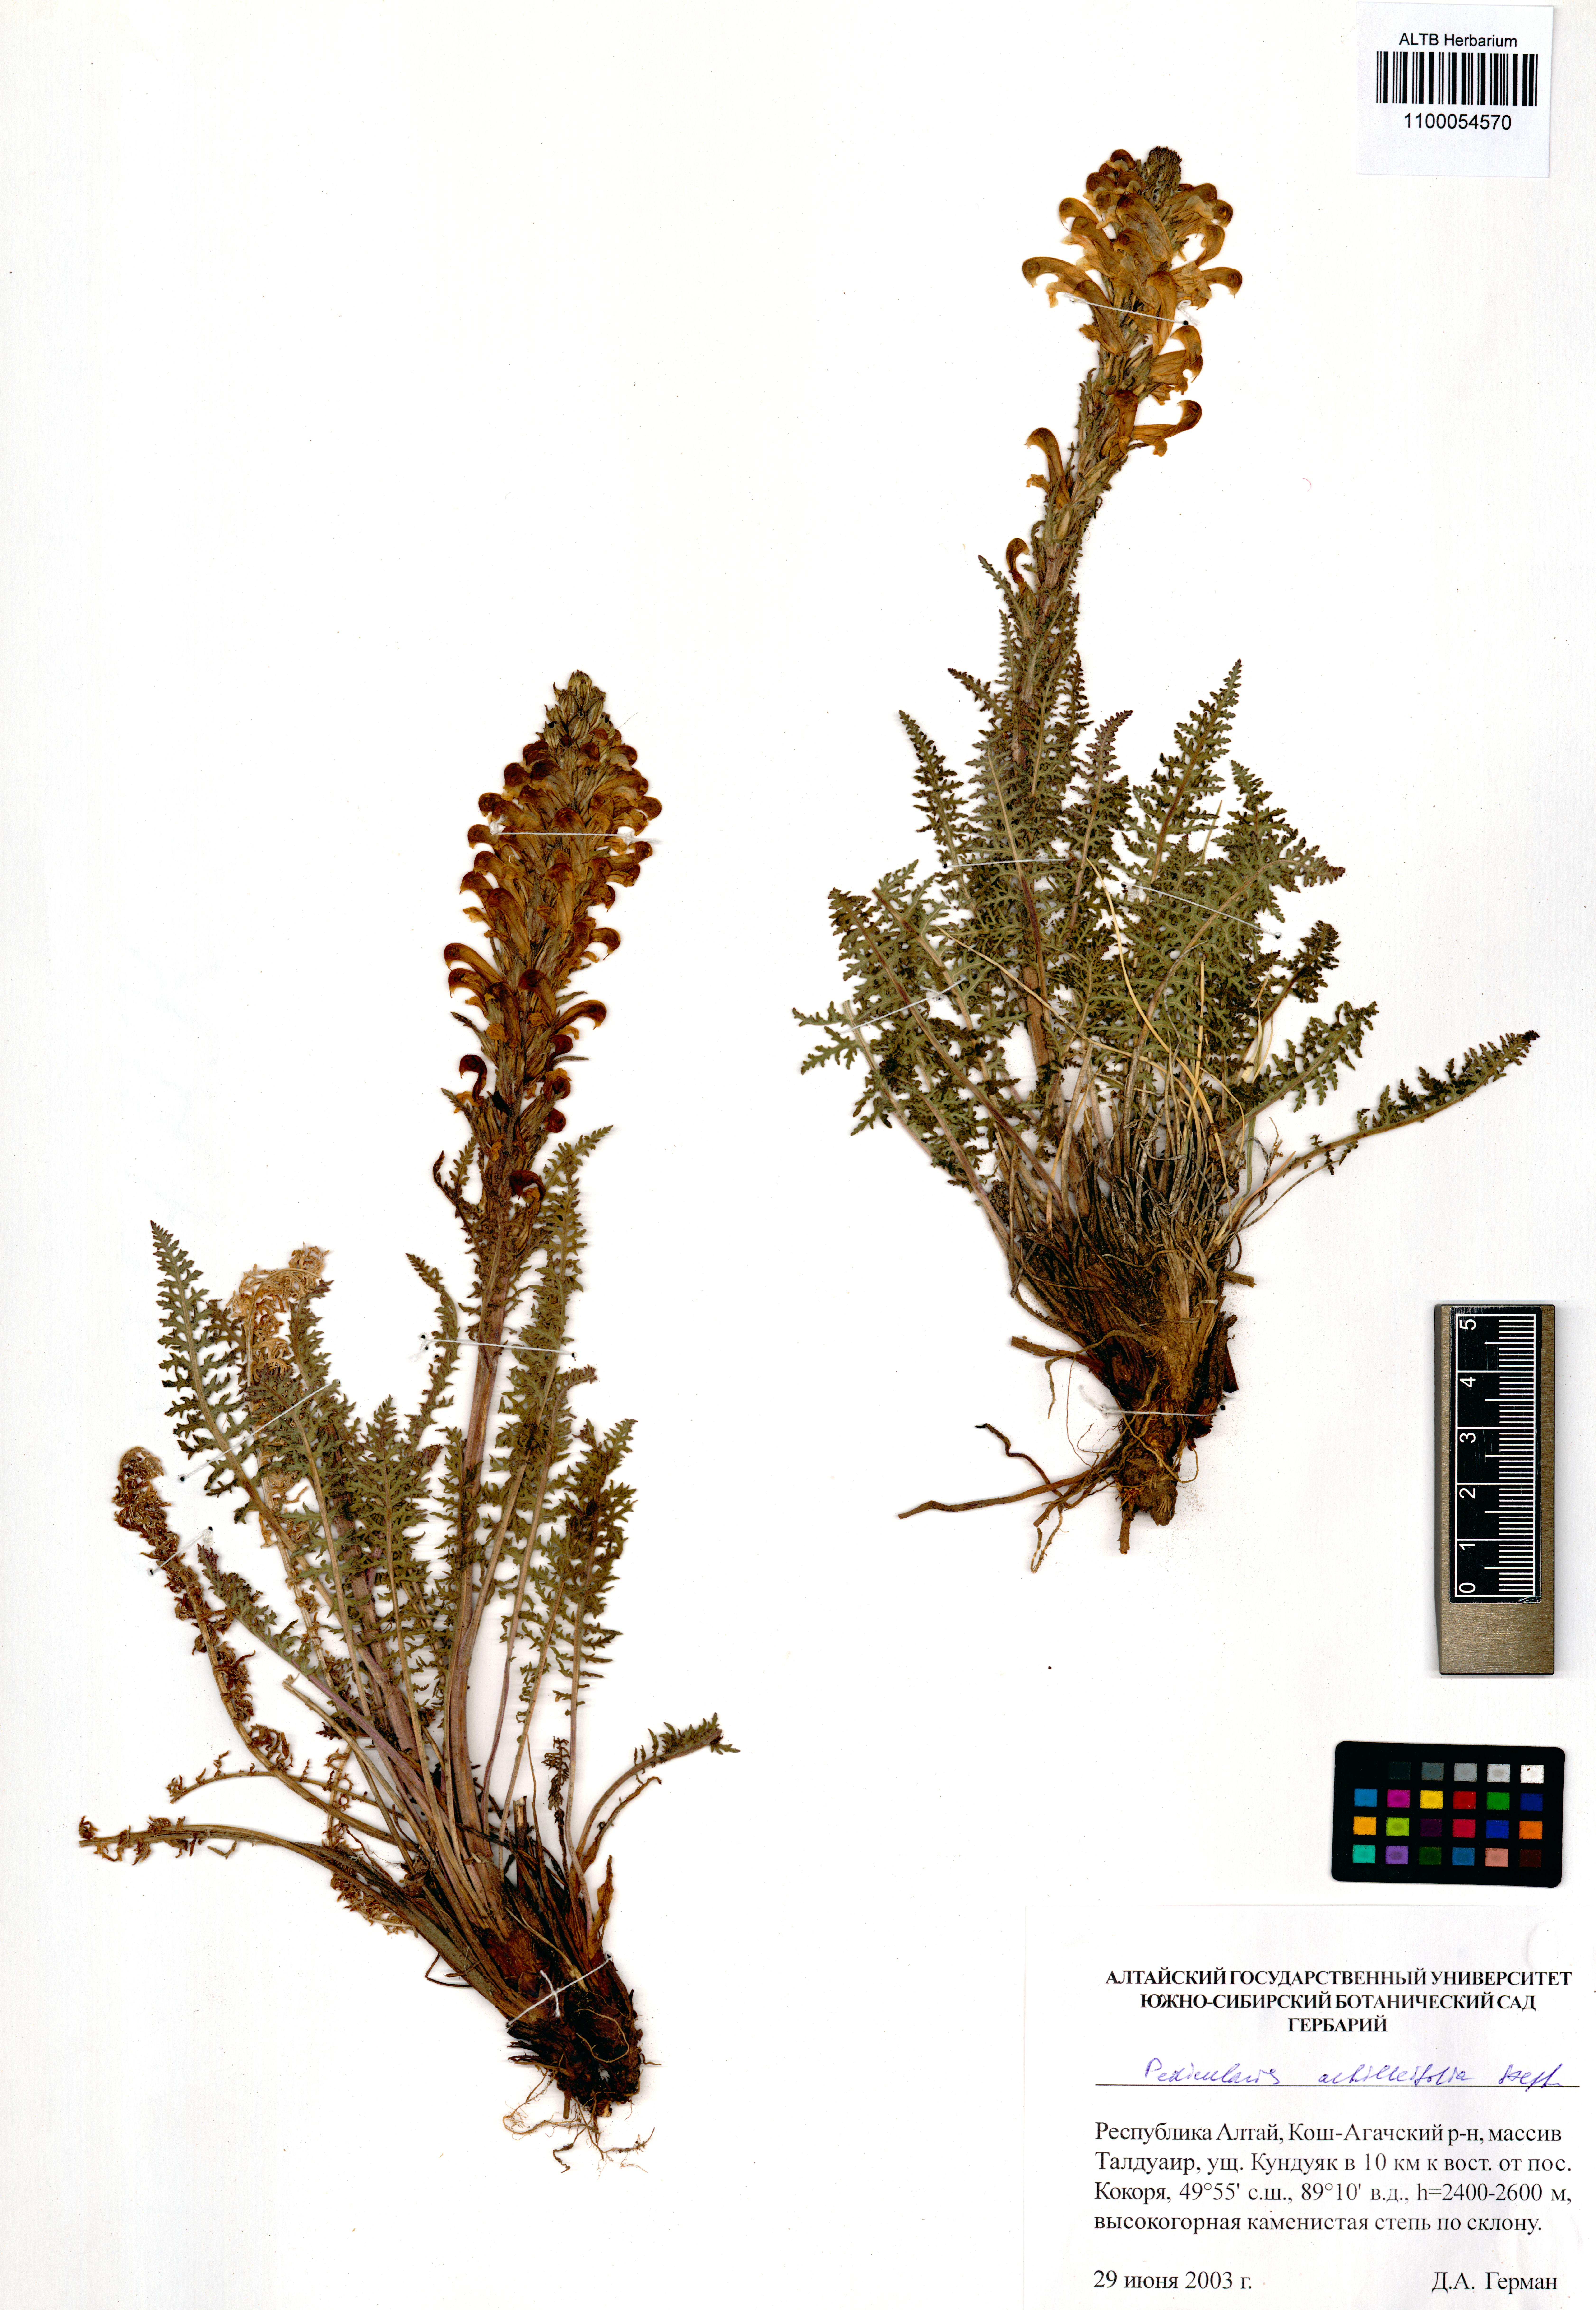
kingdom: Plantae
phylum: Tracheophyta
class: Magnoliopsida
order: Lamiales
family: Orobanchaceae
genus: Pedicularis
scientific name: Pedicularis achilleifolia
